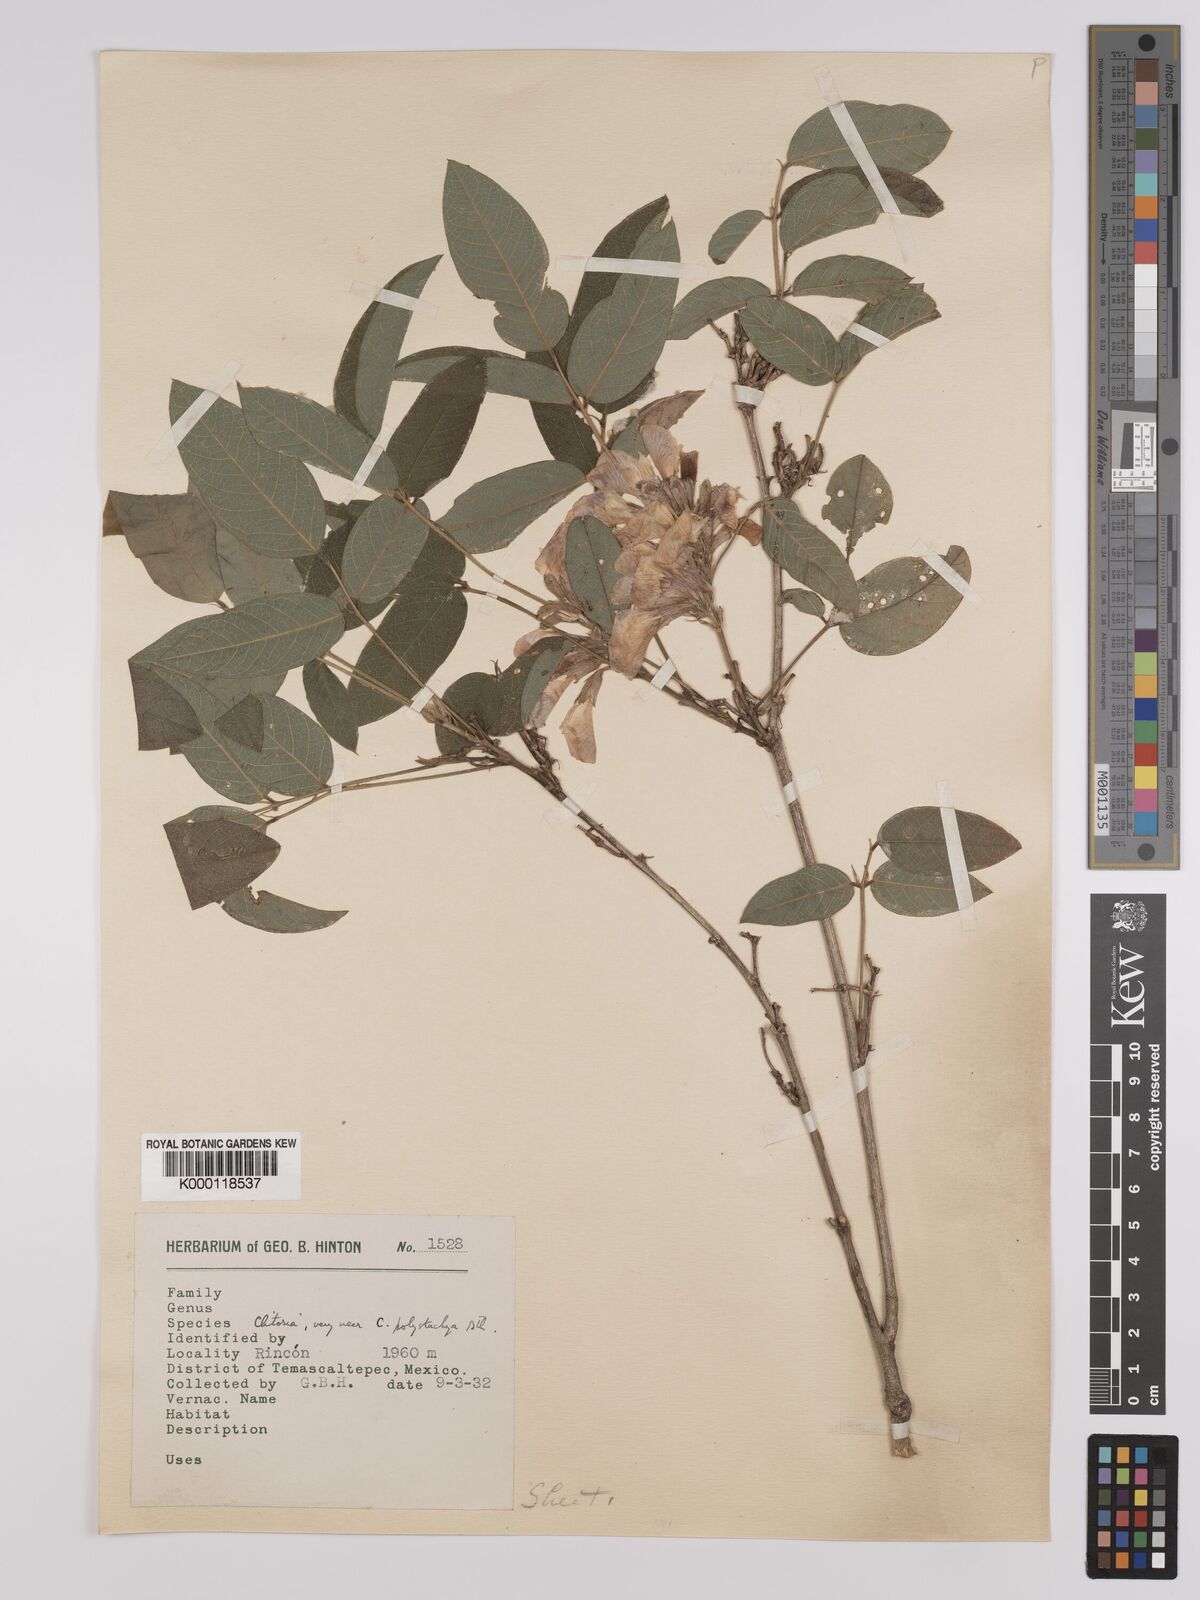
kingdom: Plantae
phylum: Tracheophyta
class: Magnoliopsida
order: Fabales
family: Fabaceae
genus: Clitoria
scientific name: Clitoria polystachya
